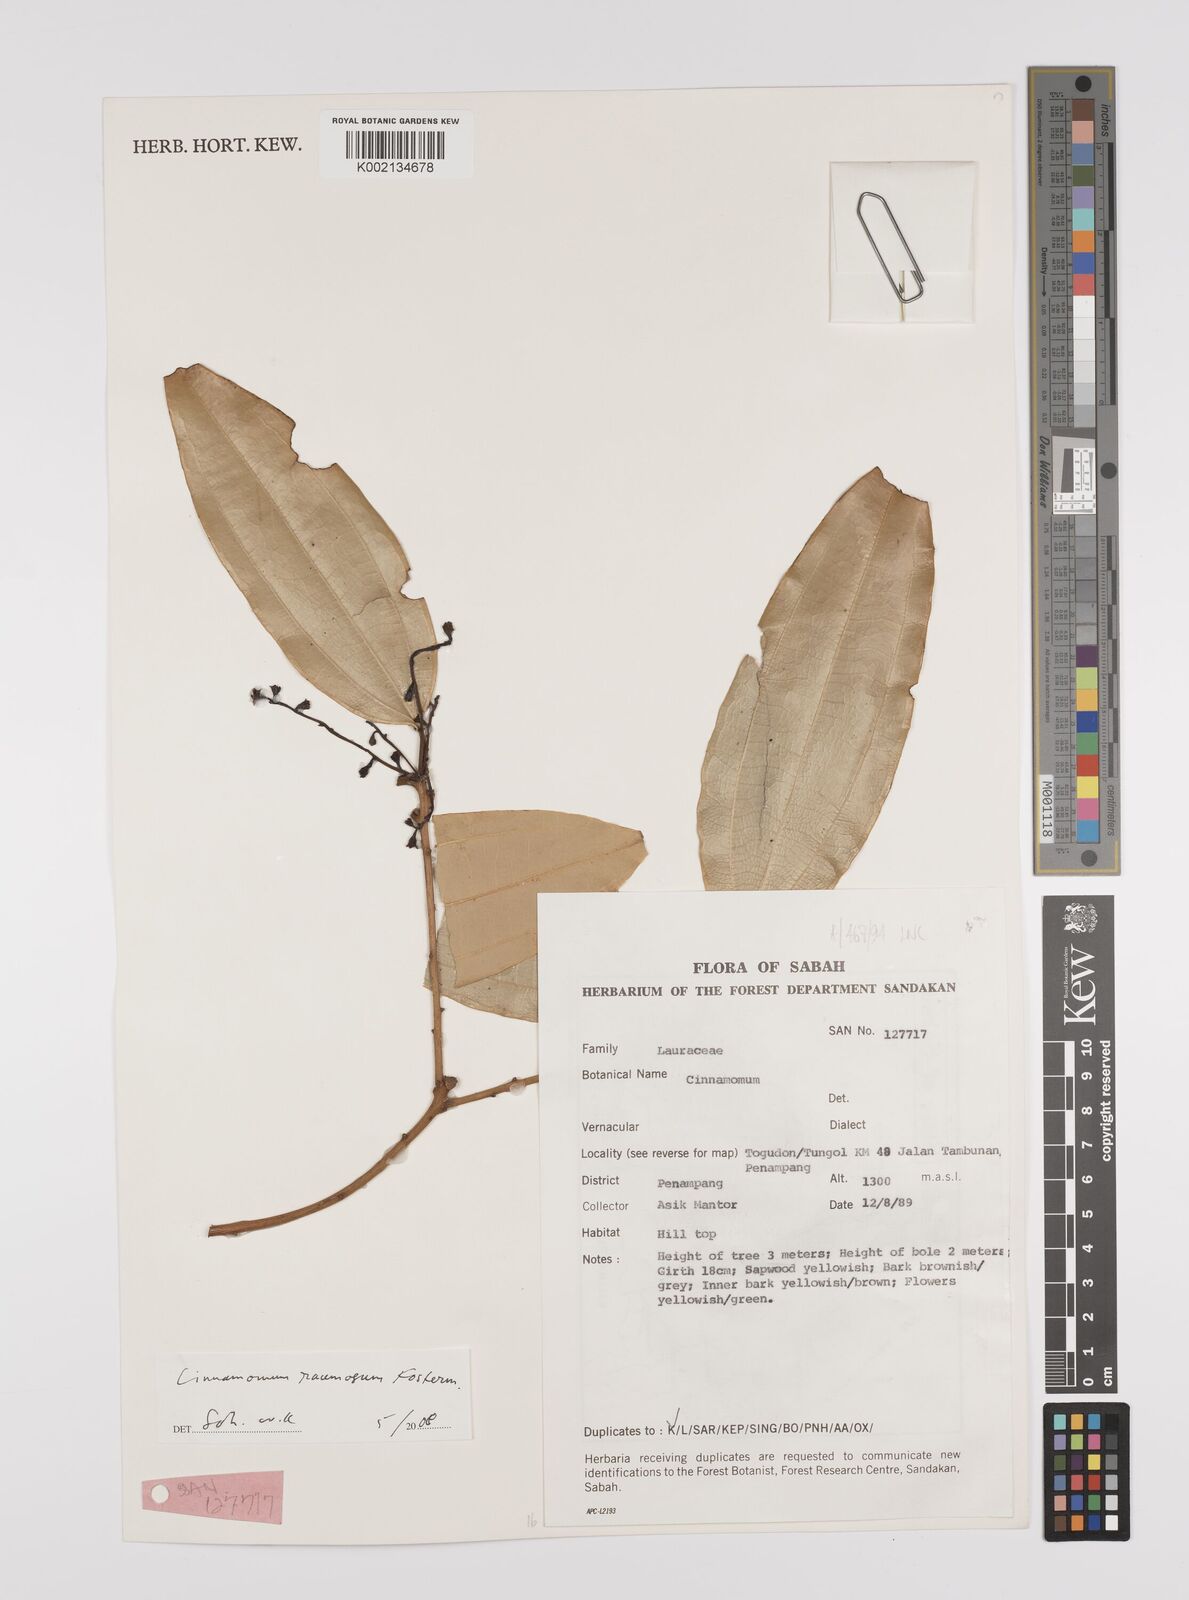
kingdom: Plantae
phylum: Tracheophyta
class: Magnoliopsida
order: Laurales
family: Lauraceae
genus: Cinnamomum
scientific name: Cinnamomum racemosum
